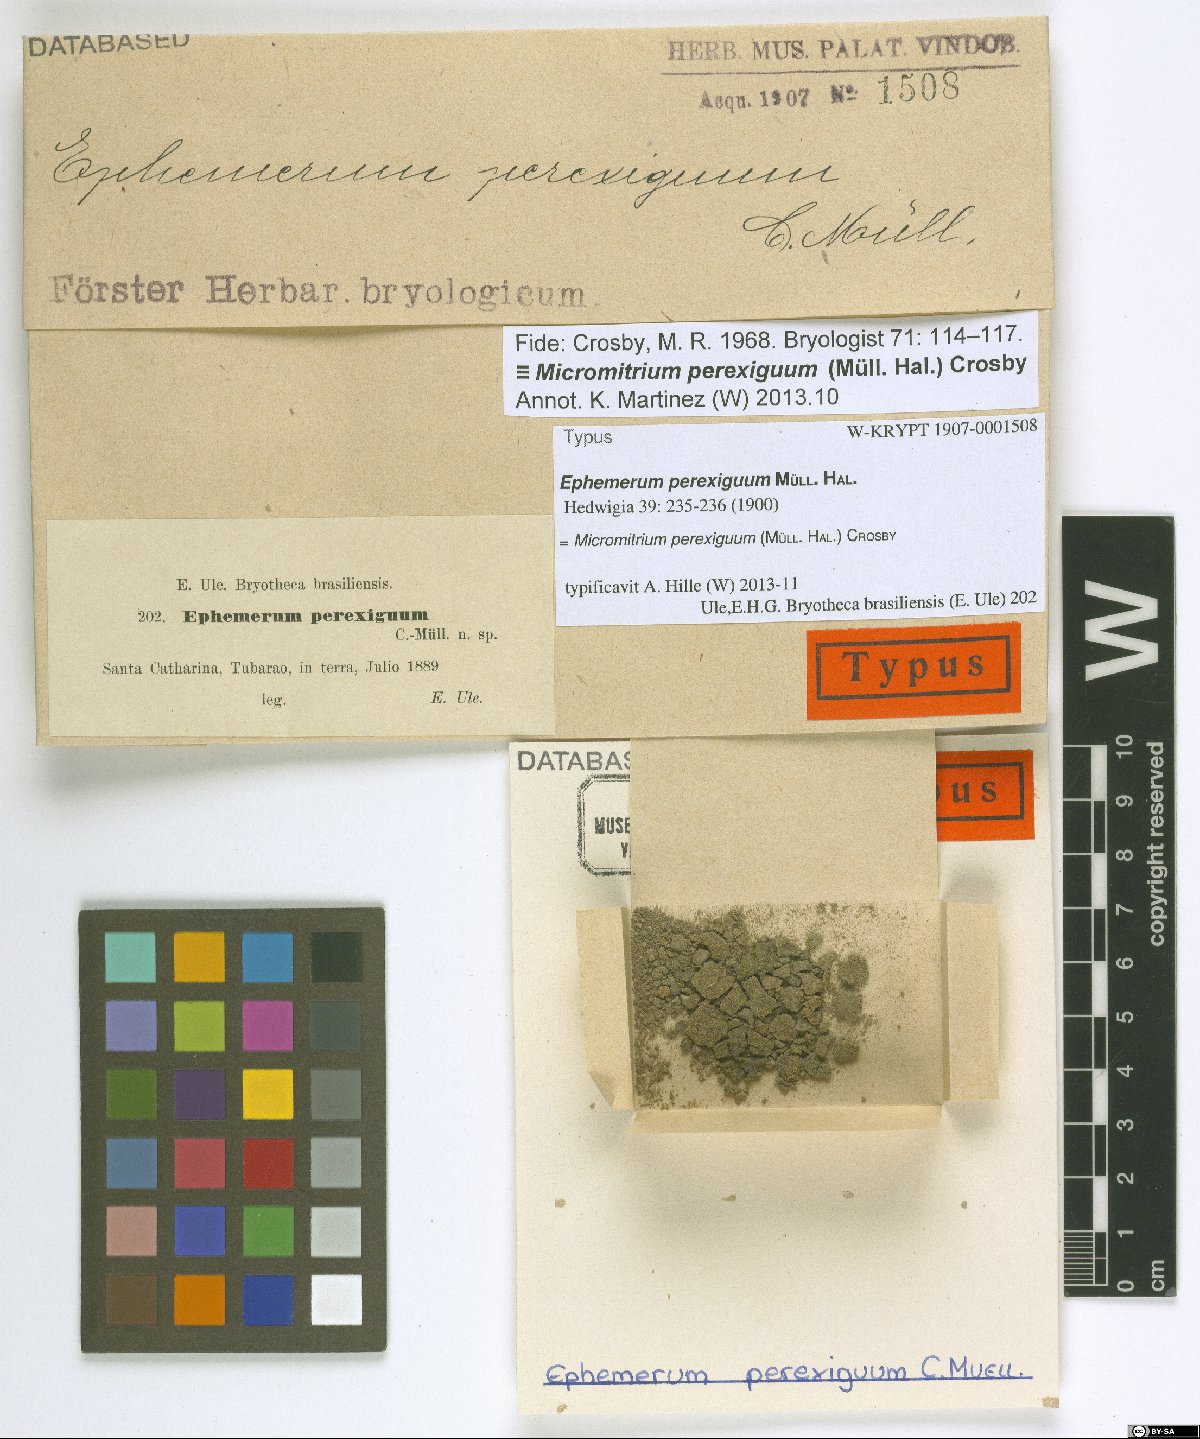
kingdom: Plantae
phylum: Bryophyta
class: Bryopsida
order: Dicranales
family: Micromitriaceae
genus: Micromitrium
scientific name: Micromitrium perexiguum
